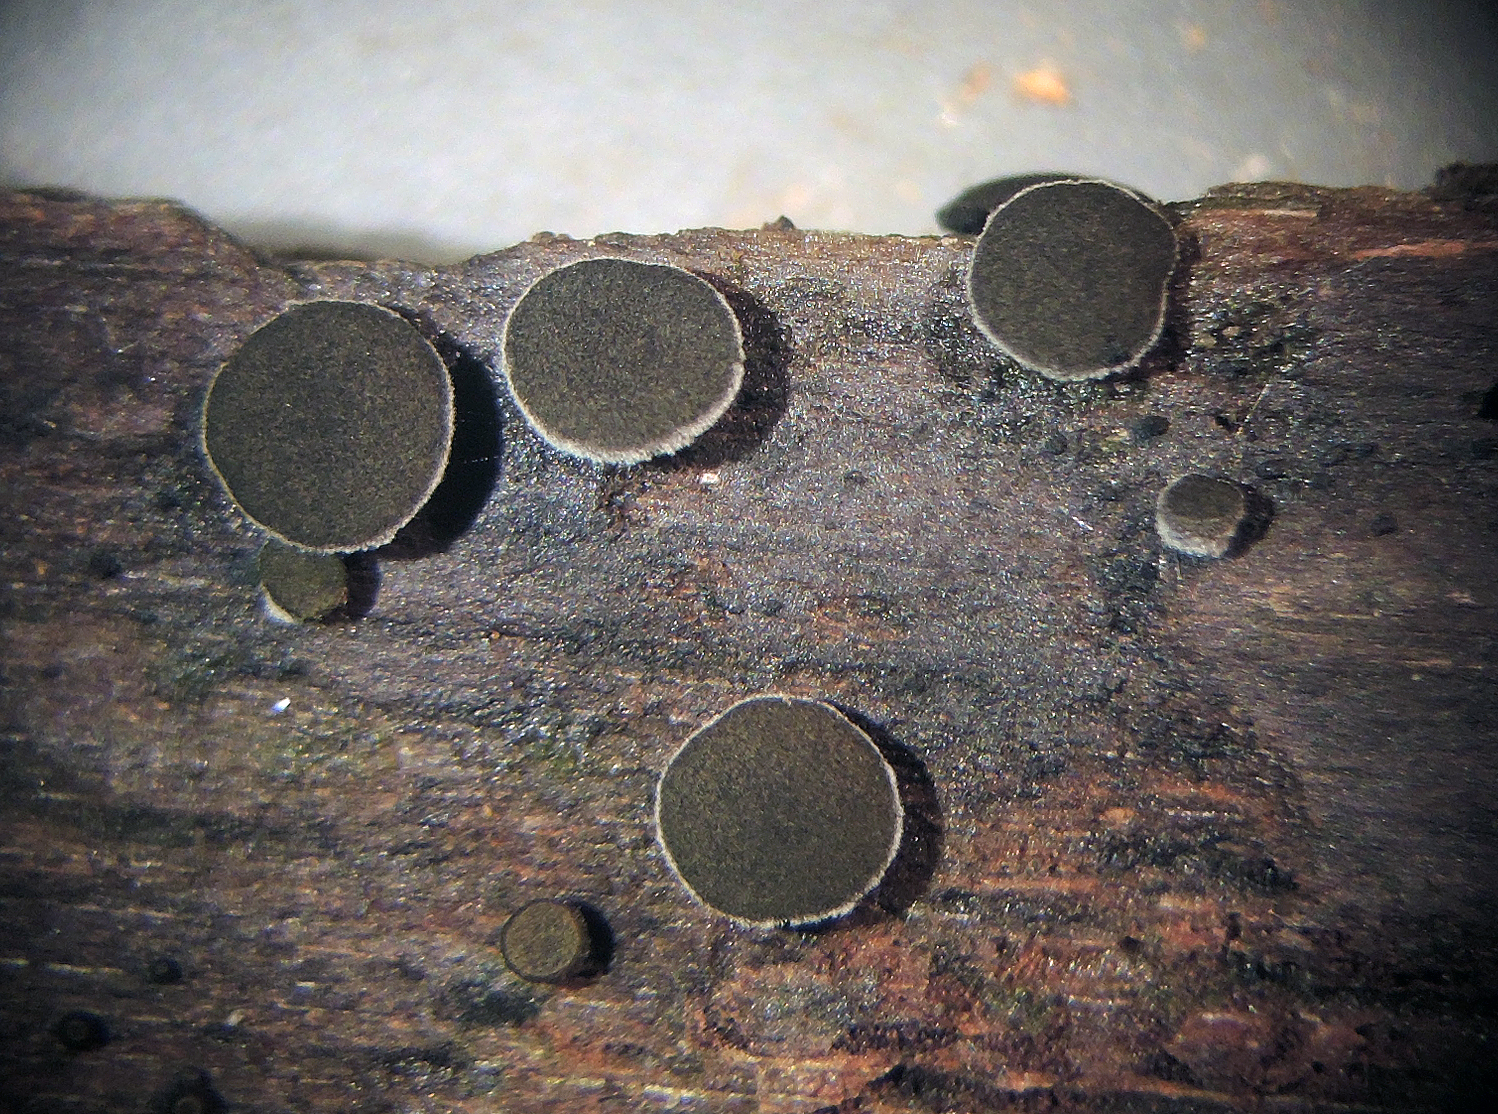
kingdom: Fungi
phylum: Ascomycota
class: Leotiomycetes
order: Helotiales
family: Helotiaceae
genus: Bulgariella
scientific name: Bulgariella pulla
